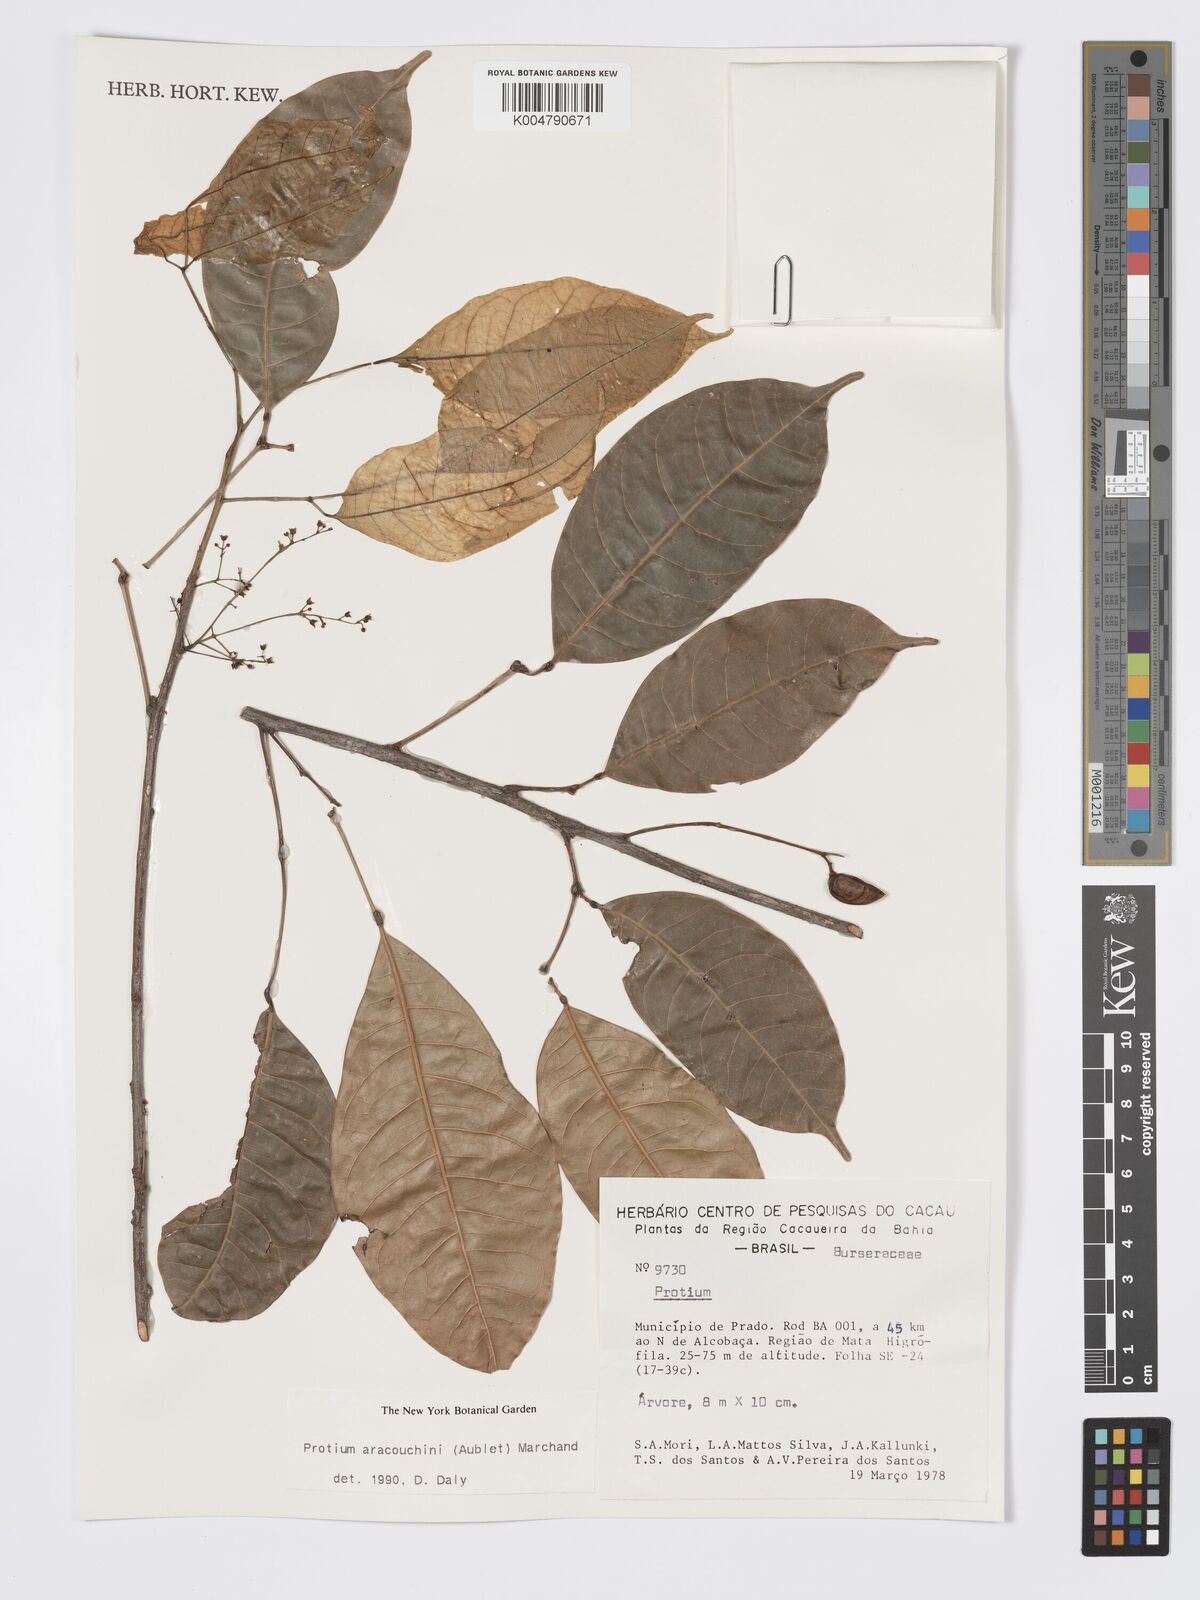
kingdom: Plantae
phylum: Tracheophyta
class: Magnoliopsida
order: Sapindales
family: Burseraceae
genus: Protium
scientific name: Protium aracouchini
